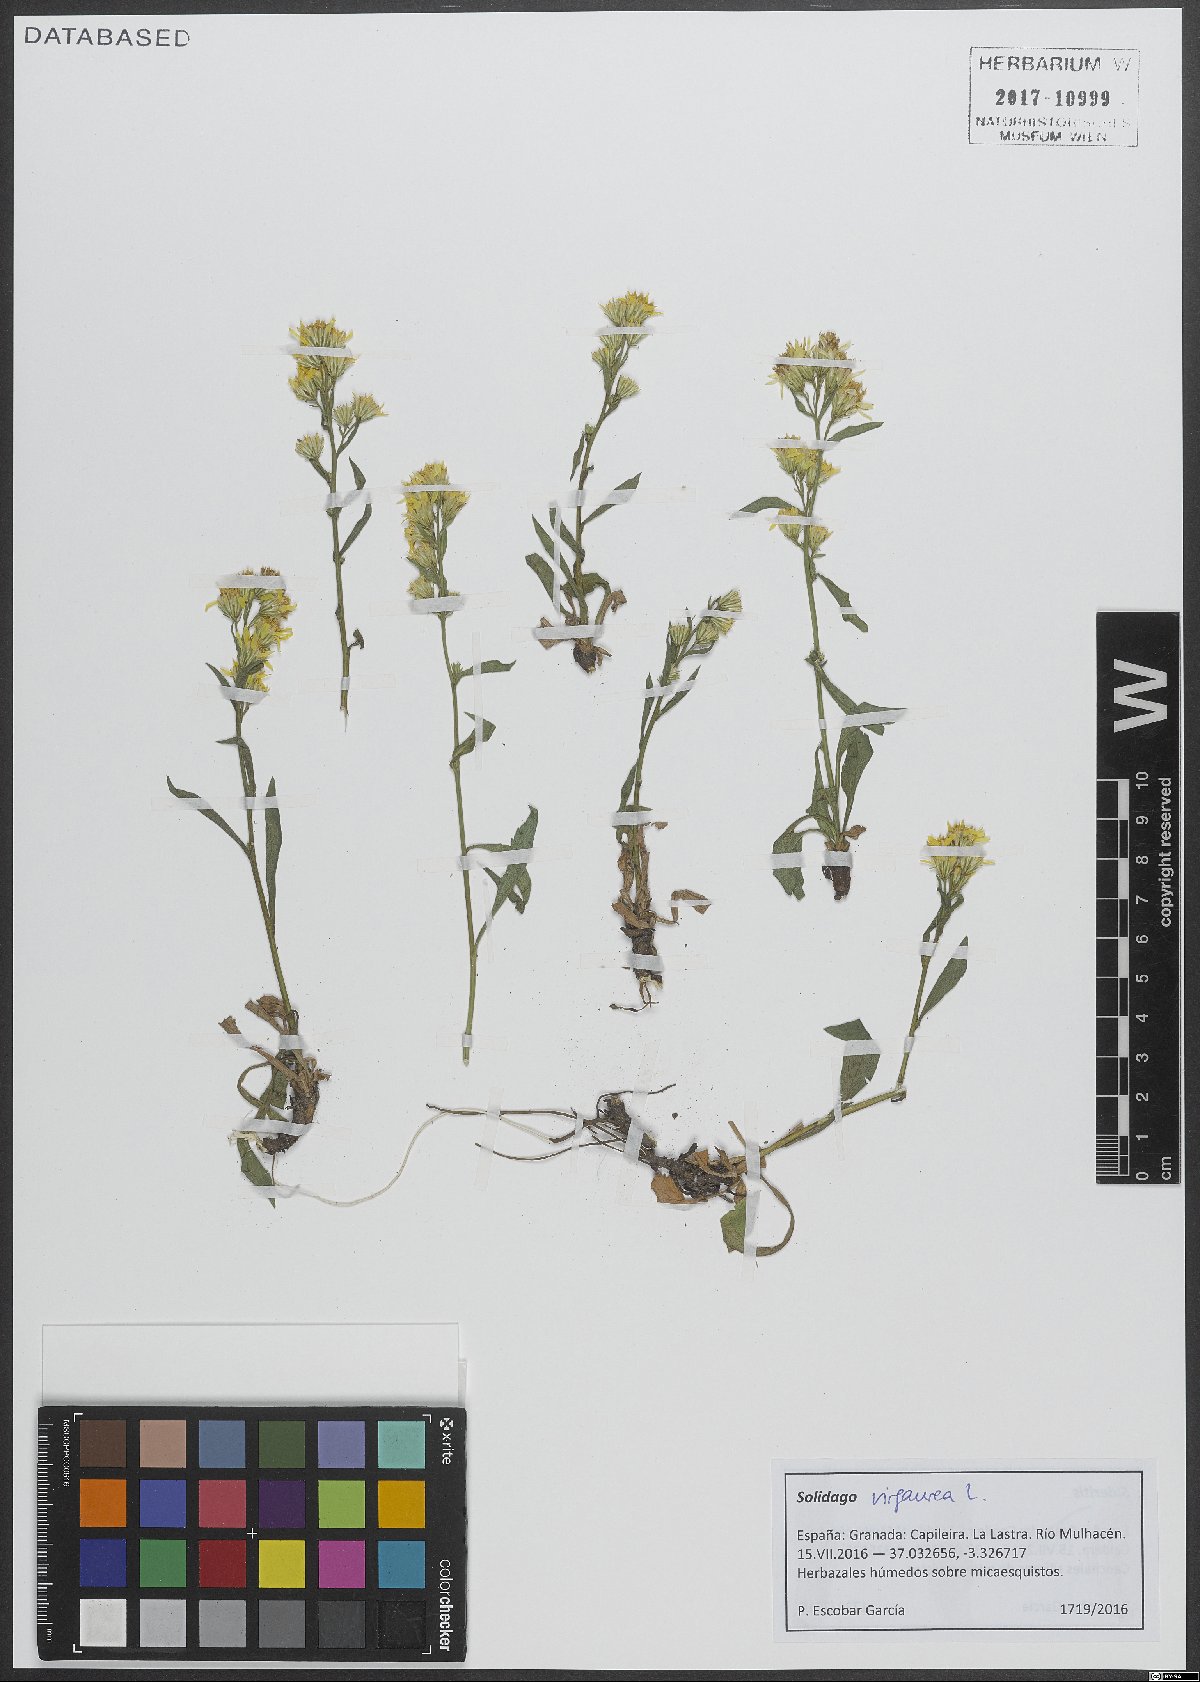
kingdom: Plantae
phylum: Tracheophyta
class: Magnoliopsida
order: Asterales
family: Asteraceae
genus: Solidago
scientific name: Solidago virgaurea
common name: Goldenrod
